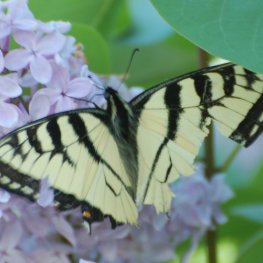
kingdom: Animalia
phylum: Arthropoda
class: Insecta
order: Lepidoptera
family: Papilionidae
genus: Pterourus
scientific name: Pterourus canadensis
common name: Canadian Tiger Swallowtail
